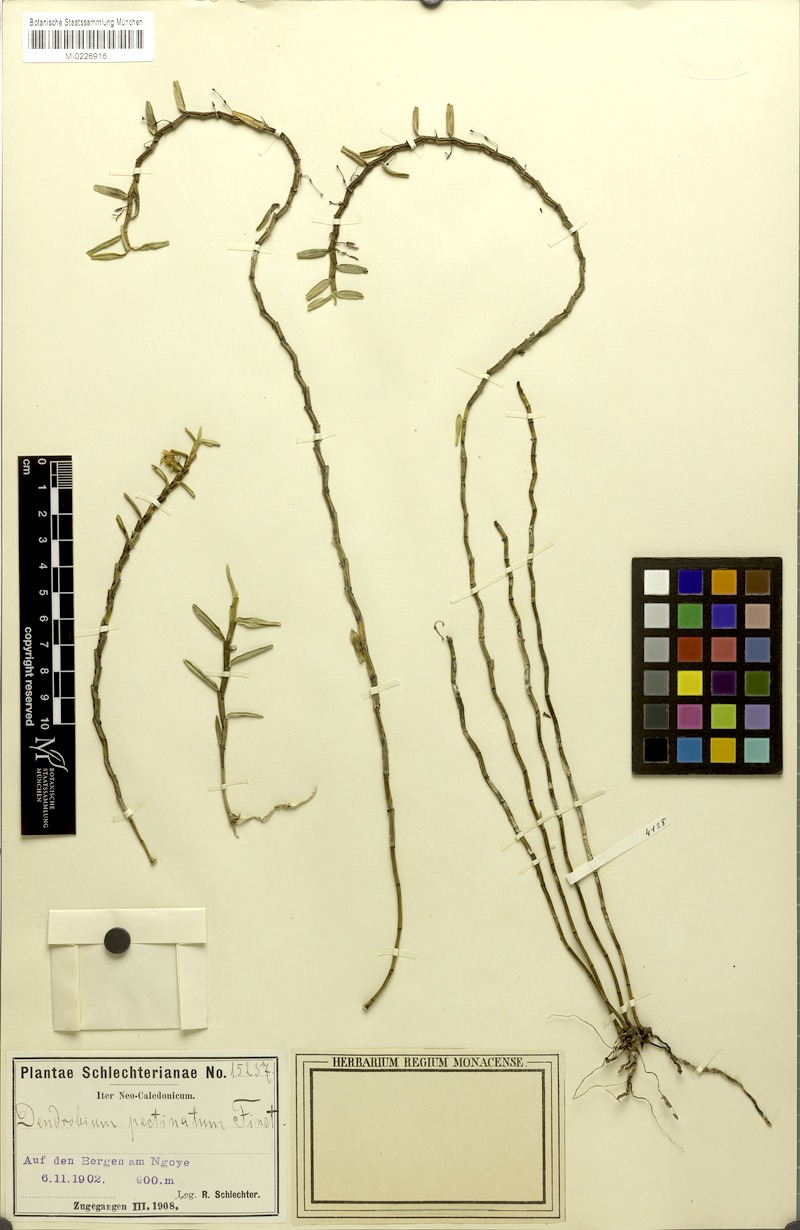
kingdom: Plantae
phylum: Tracheophyta
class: Liliopsida
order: Asparagales
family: Orchidaceae
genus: Dendrobium
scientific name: Dendrobium pectinatum
